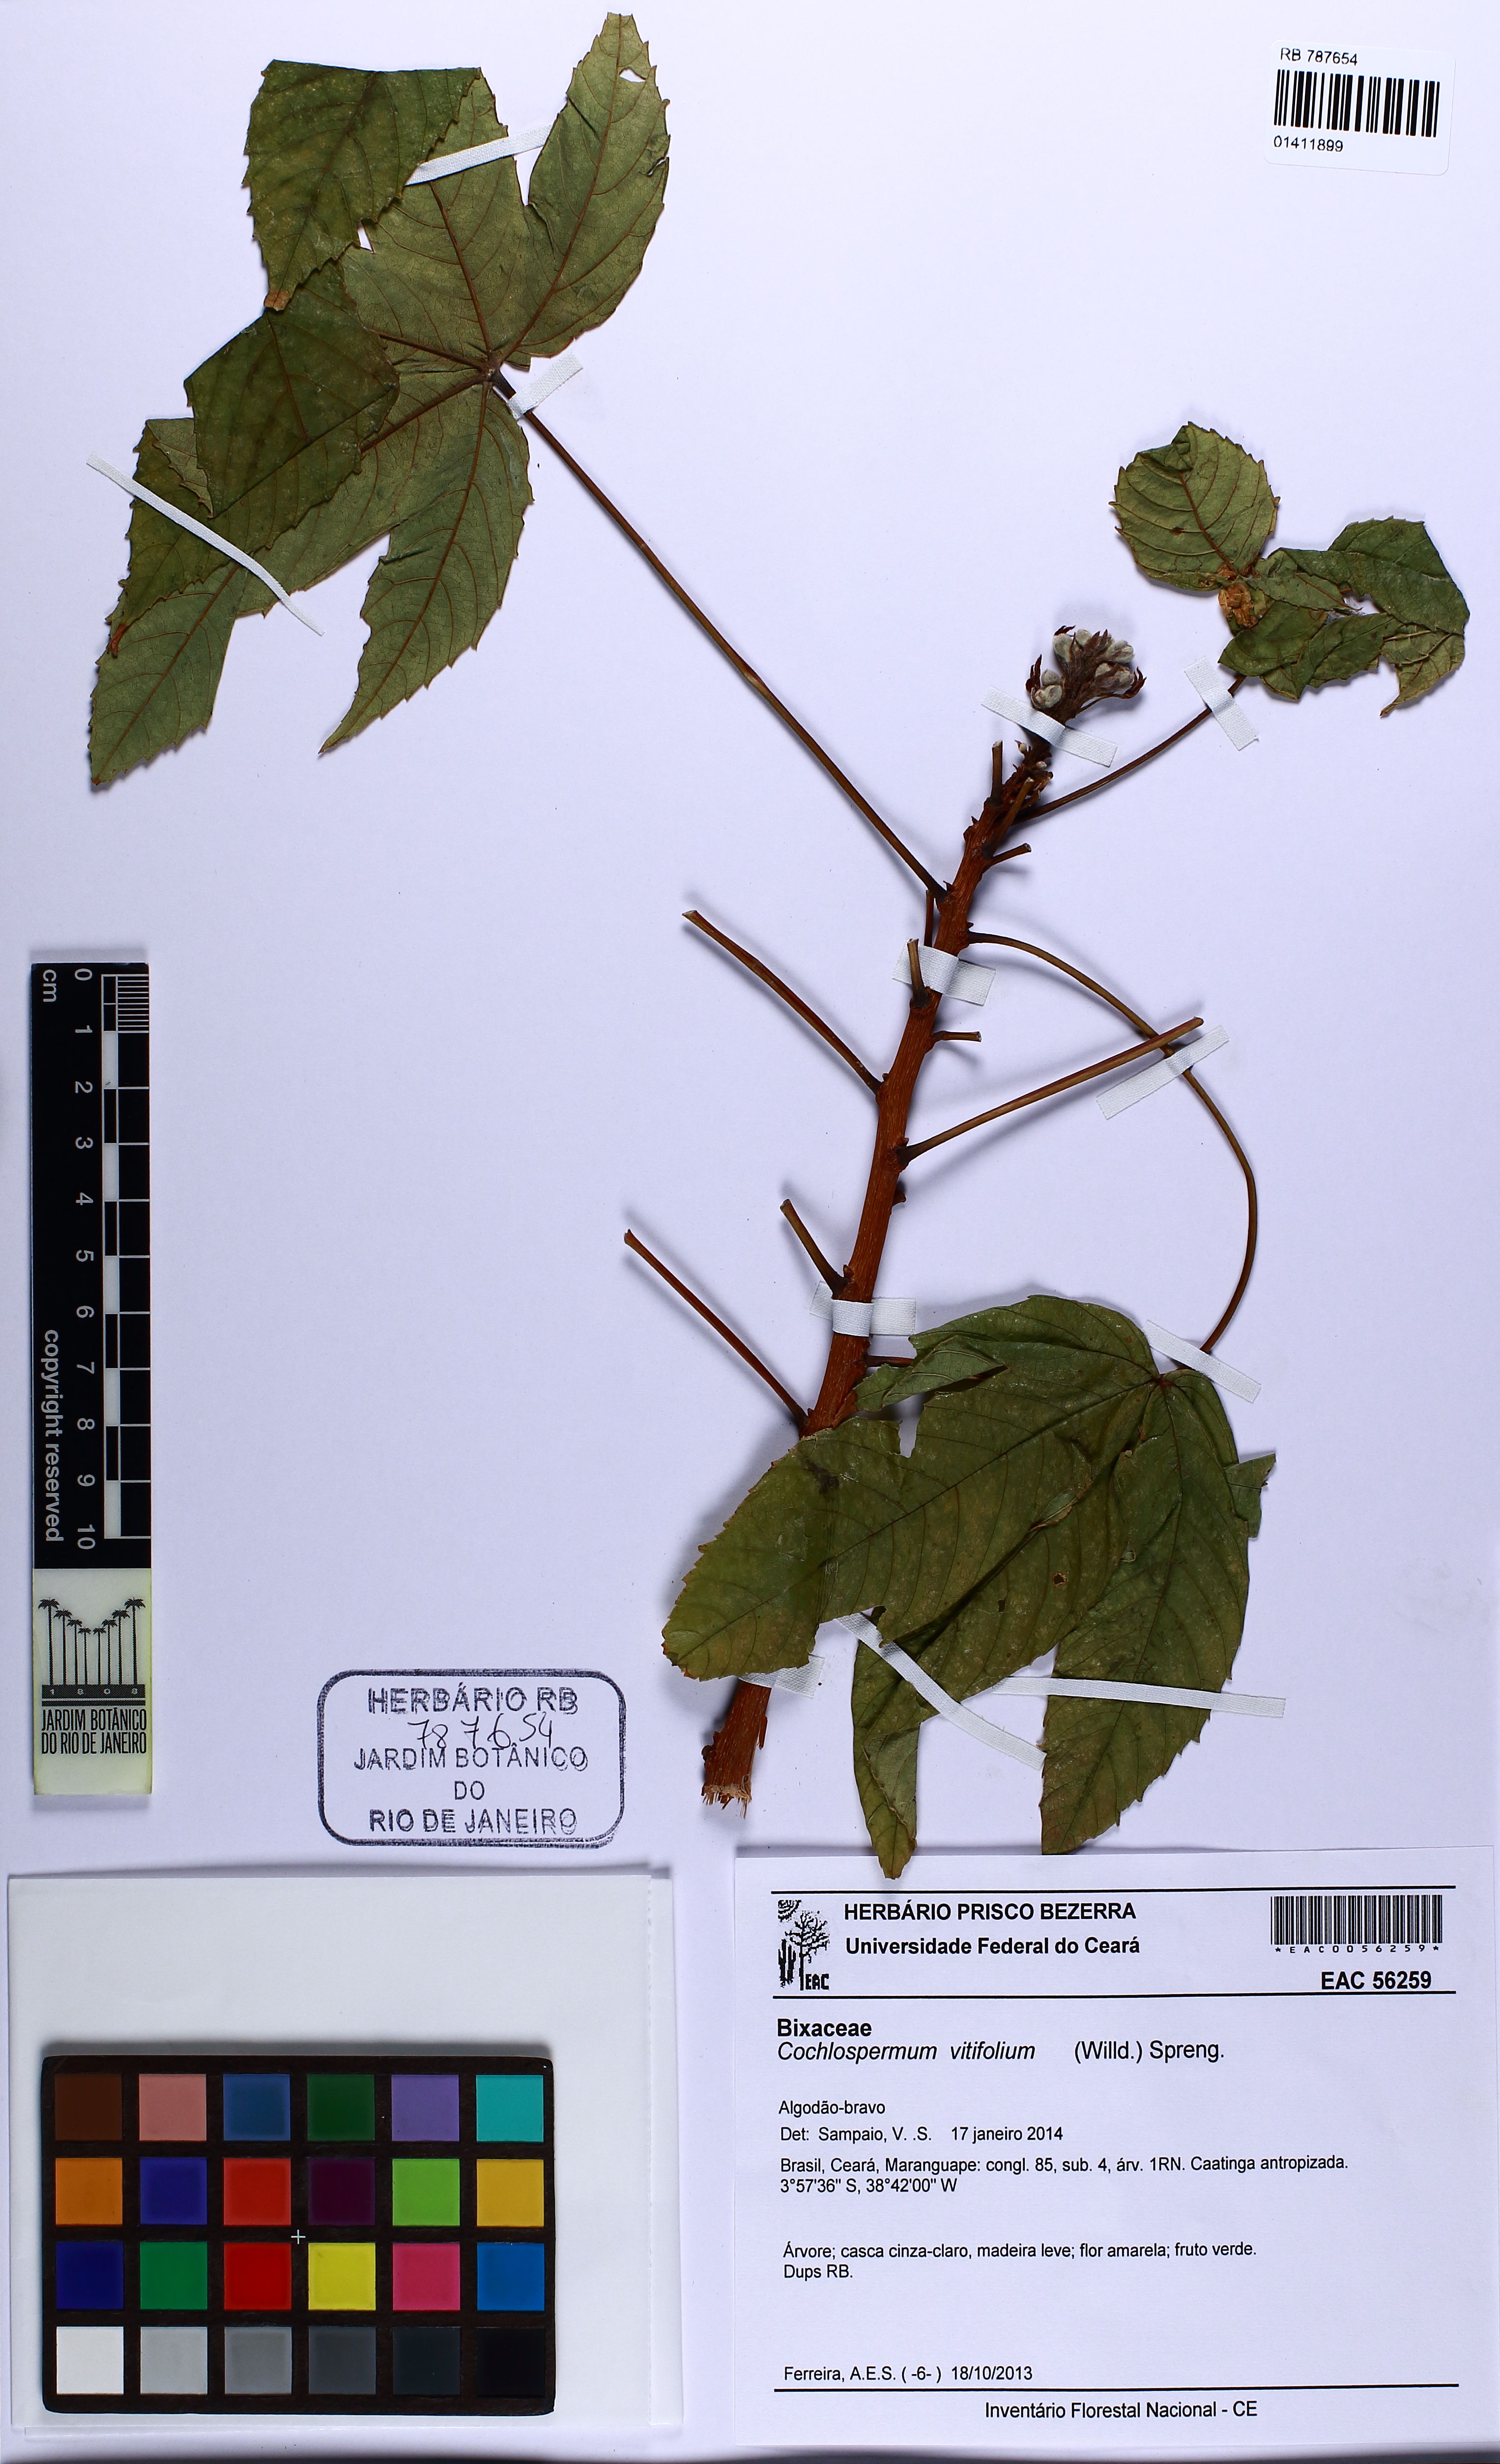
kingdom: Plantae
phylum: Tracheophyta
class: Magnoliopsida
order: Malvales
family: Cochlospermaceae
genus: Cochlospermum
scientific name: Cochlospermum vitifolium
